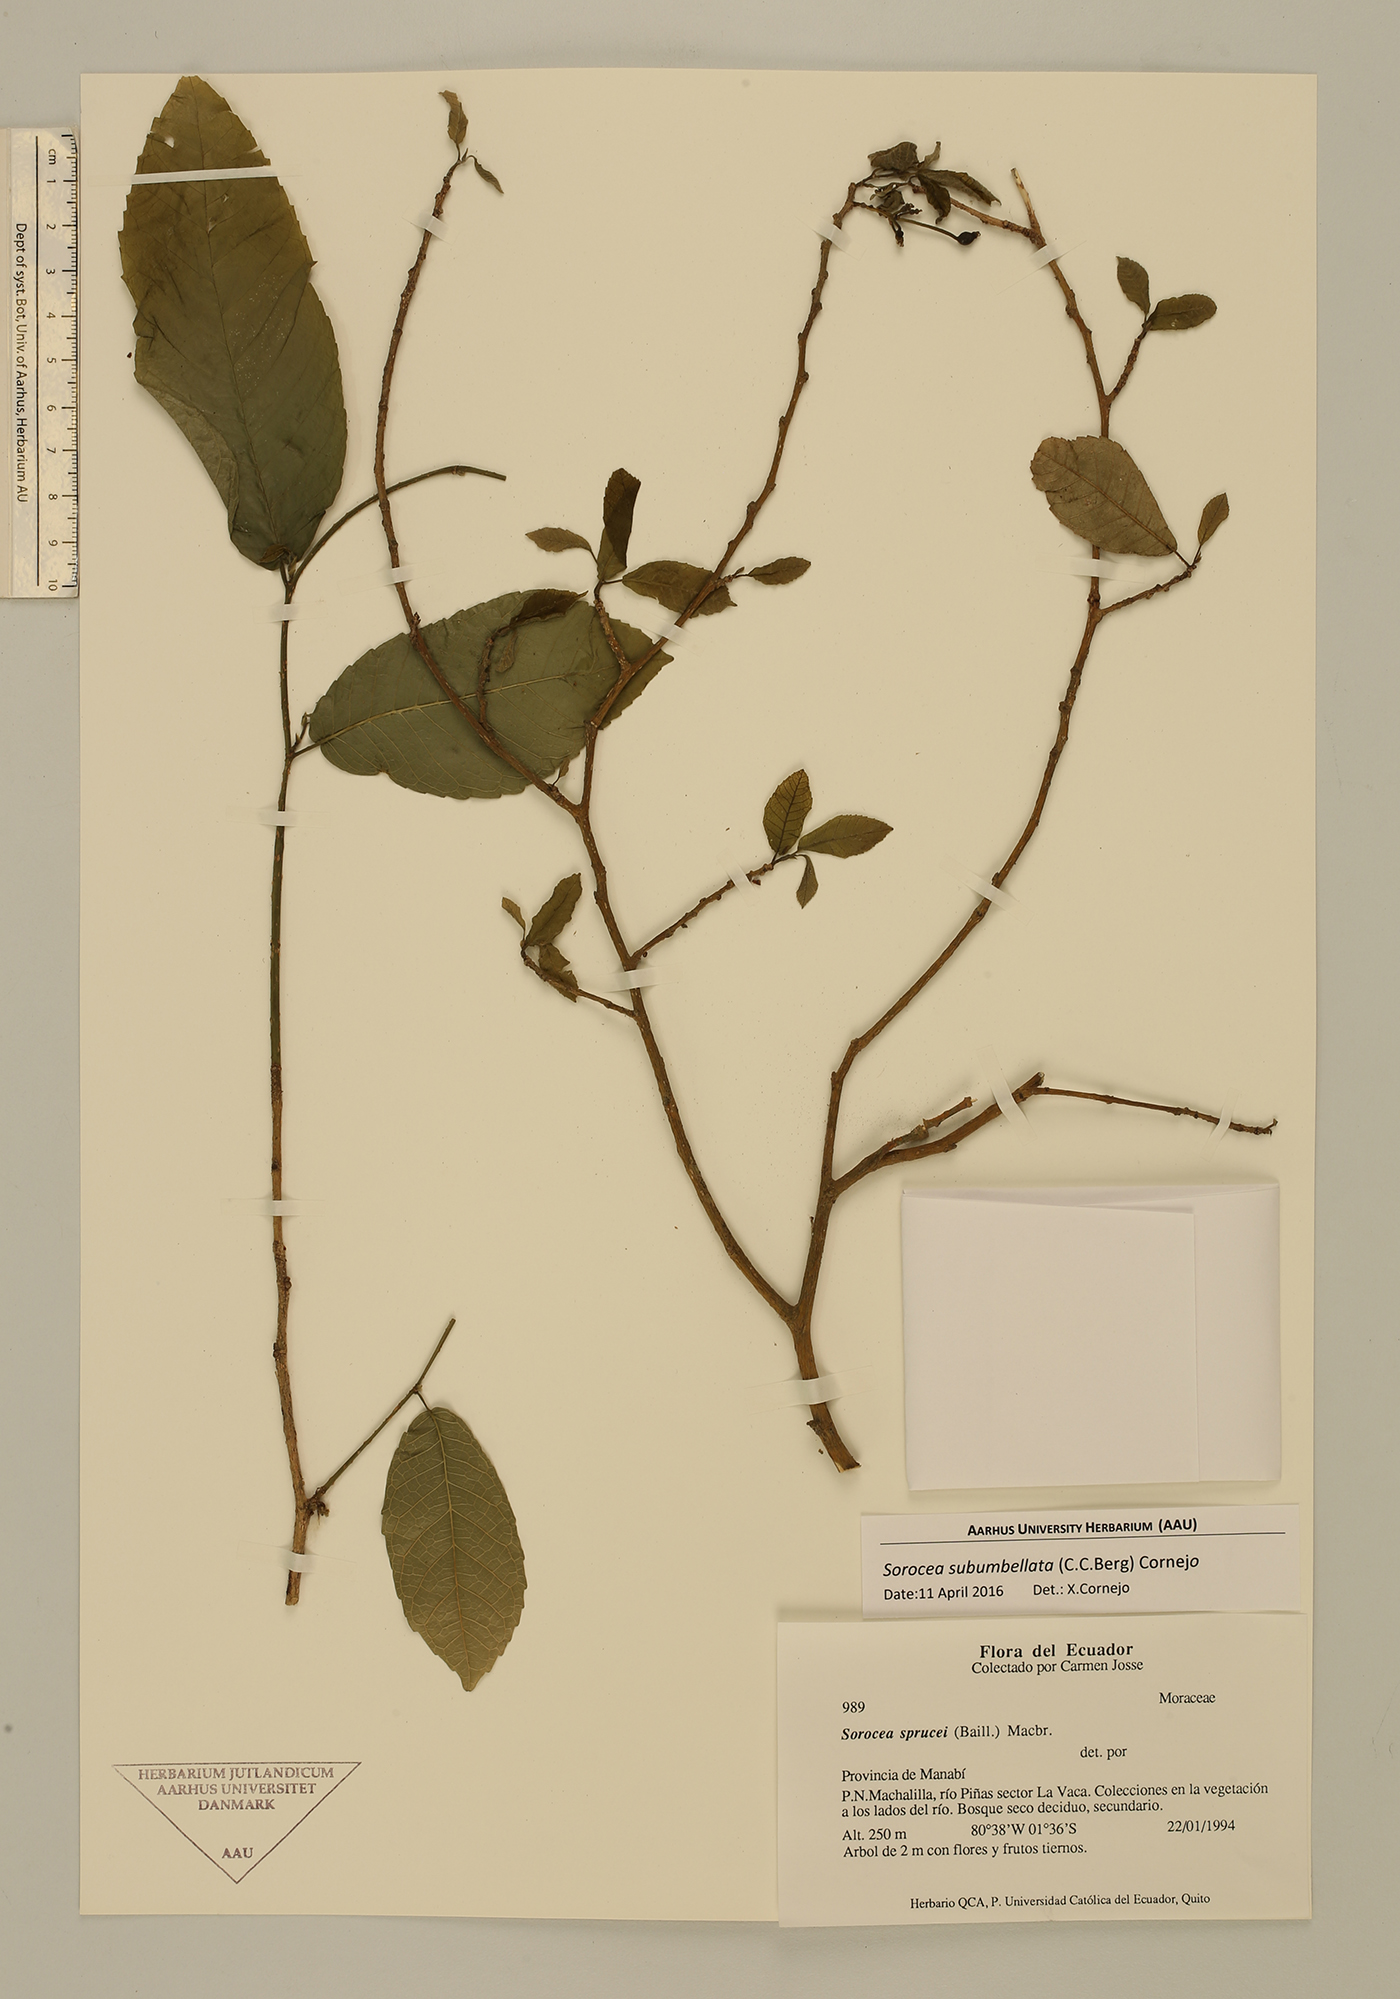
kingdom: Plantae
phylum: Tracheophyta
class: Magnoliopsida
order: Rosales
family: Moraceae
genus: Sorocea
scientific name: Sorocea subumbellata
